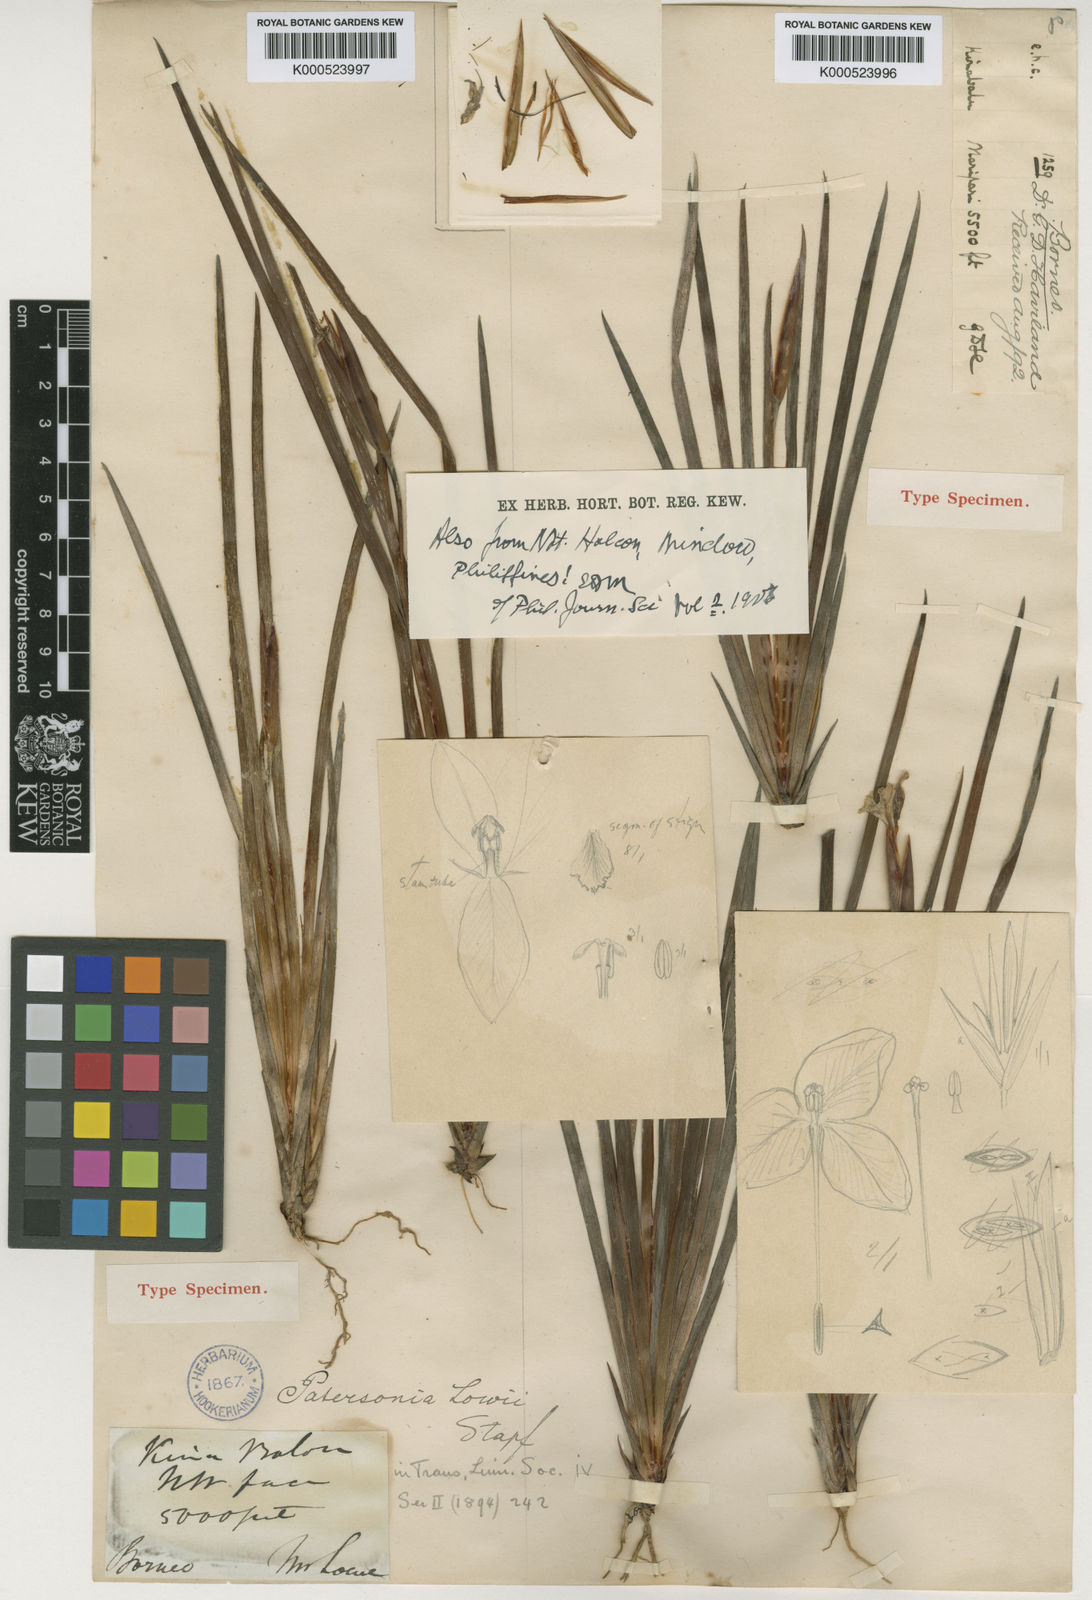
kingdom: Plantae
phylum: Tracheophyta
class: Liliopsida
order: Asparagales
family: Iridaceae
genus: Patersonia
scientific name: Patersonia lowii
